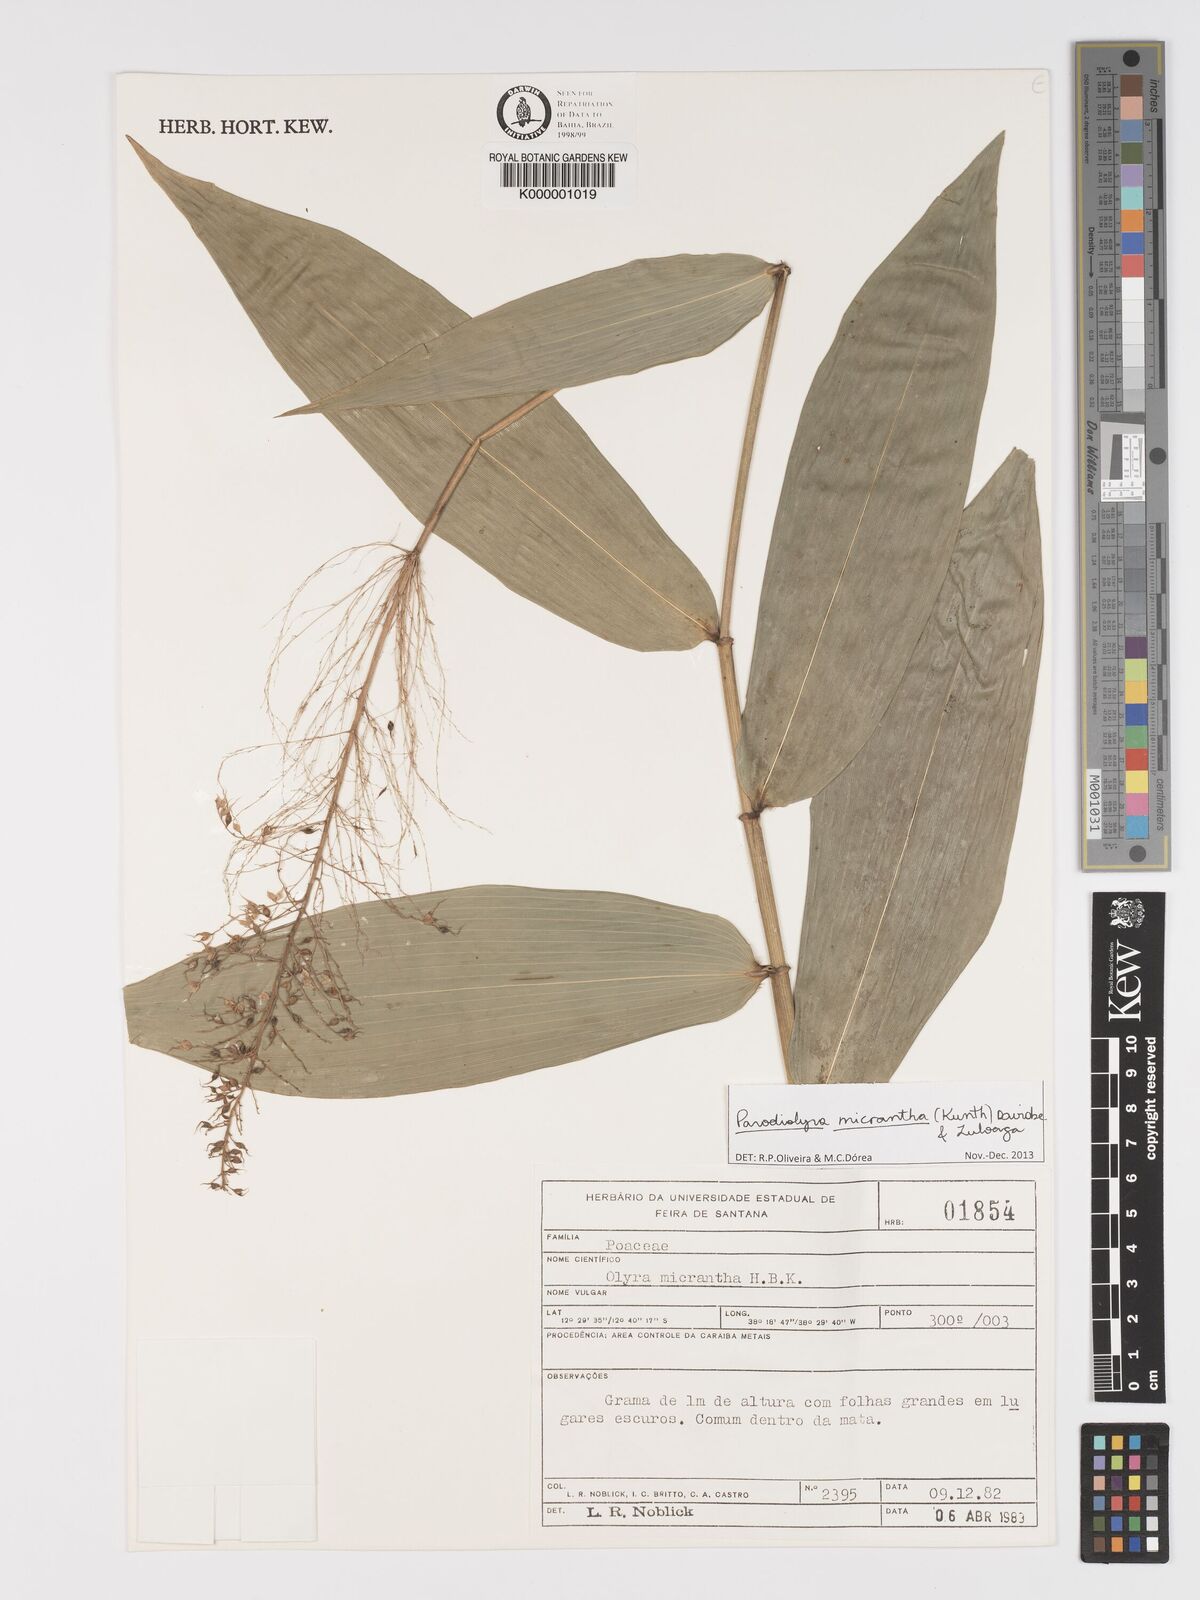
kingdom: Plantae
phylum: Tracheophyta
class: Liliopsida
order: Poales
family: Poaceae
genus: Taquara
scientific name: Taquara micrantha
